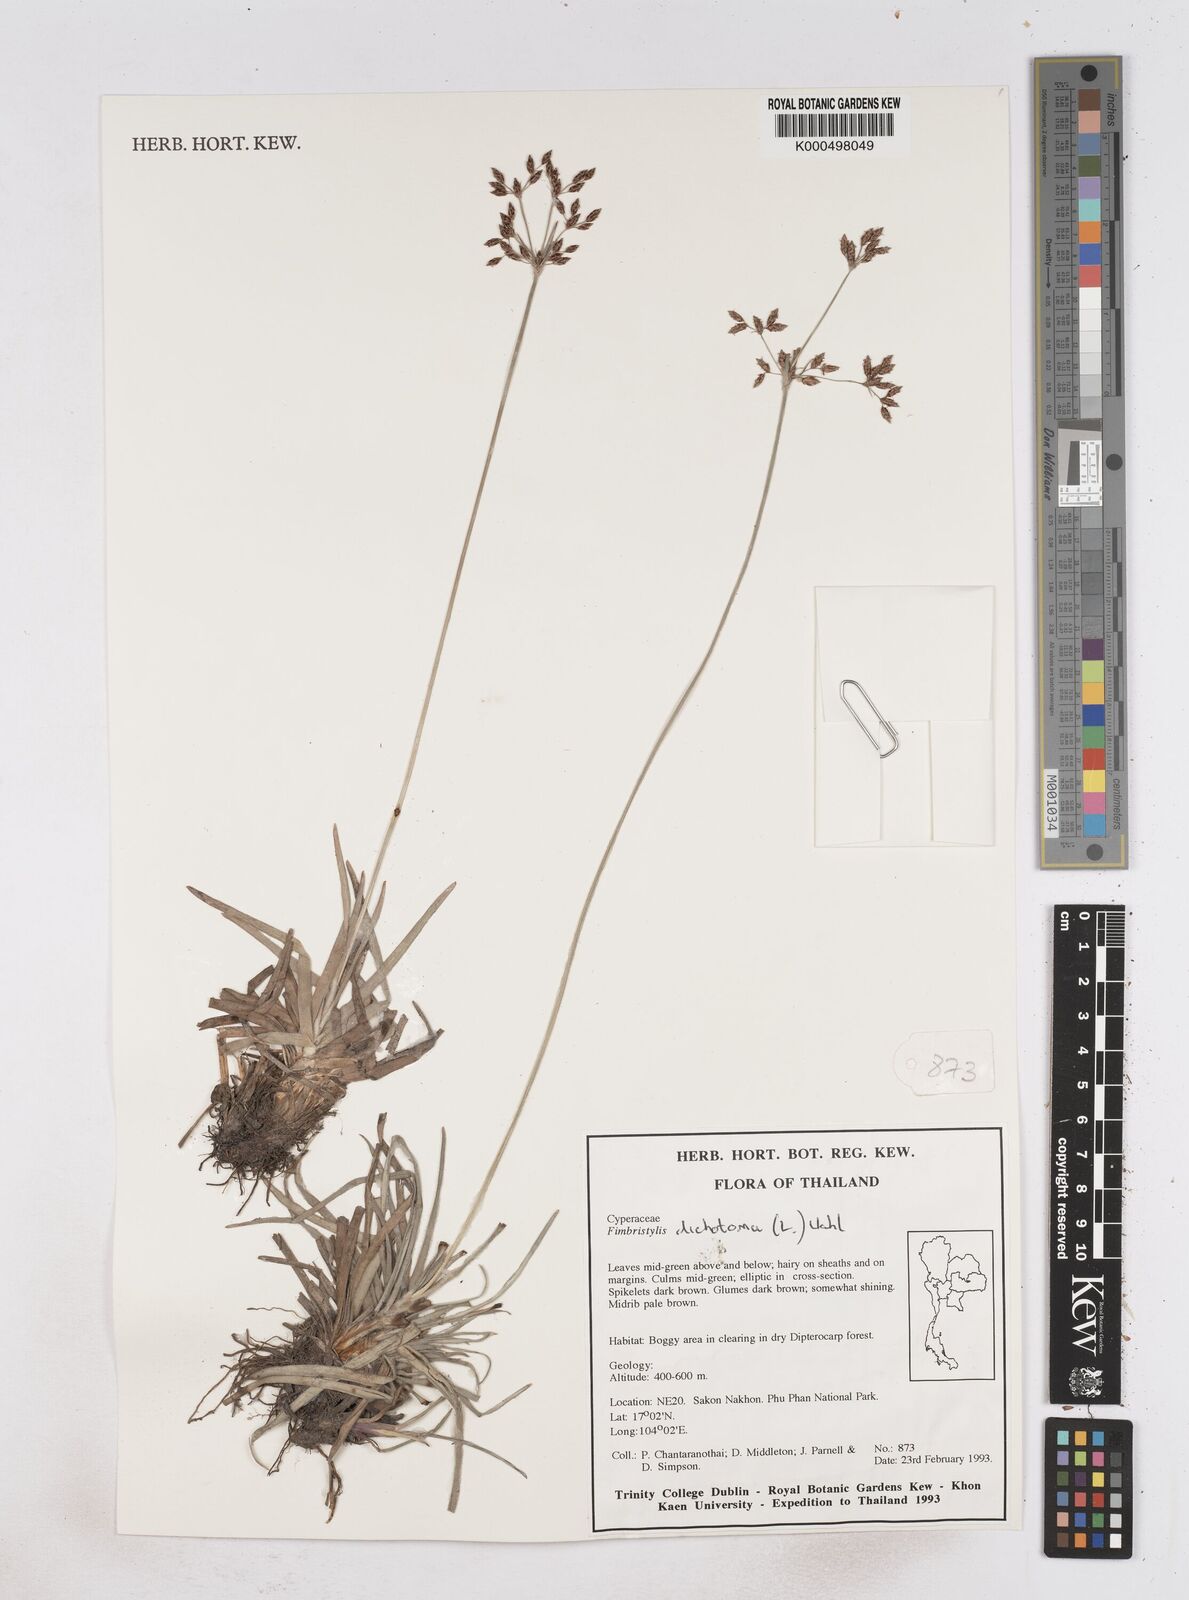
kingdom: Plantae
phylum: Tracheophyta
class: Liliopsida
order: Poales
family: Cyperaceae
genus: Fimbristylis
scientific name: Fimbristylis dichotoma
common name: Forked fimbry
